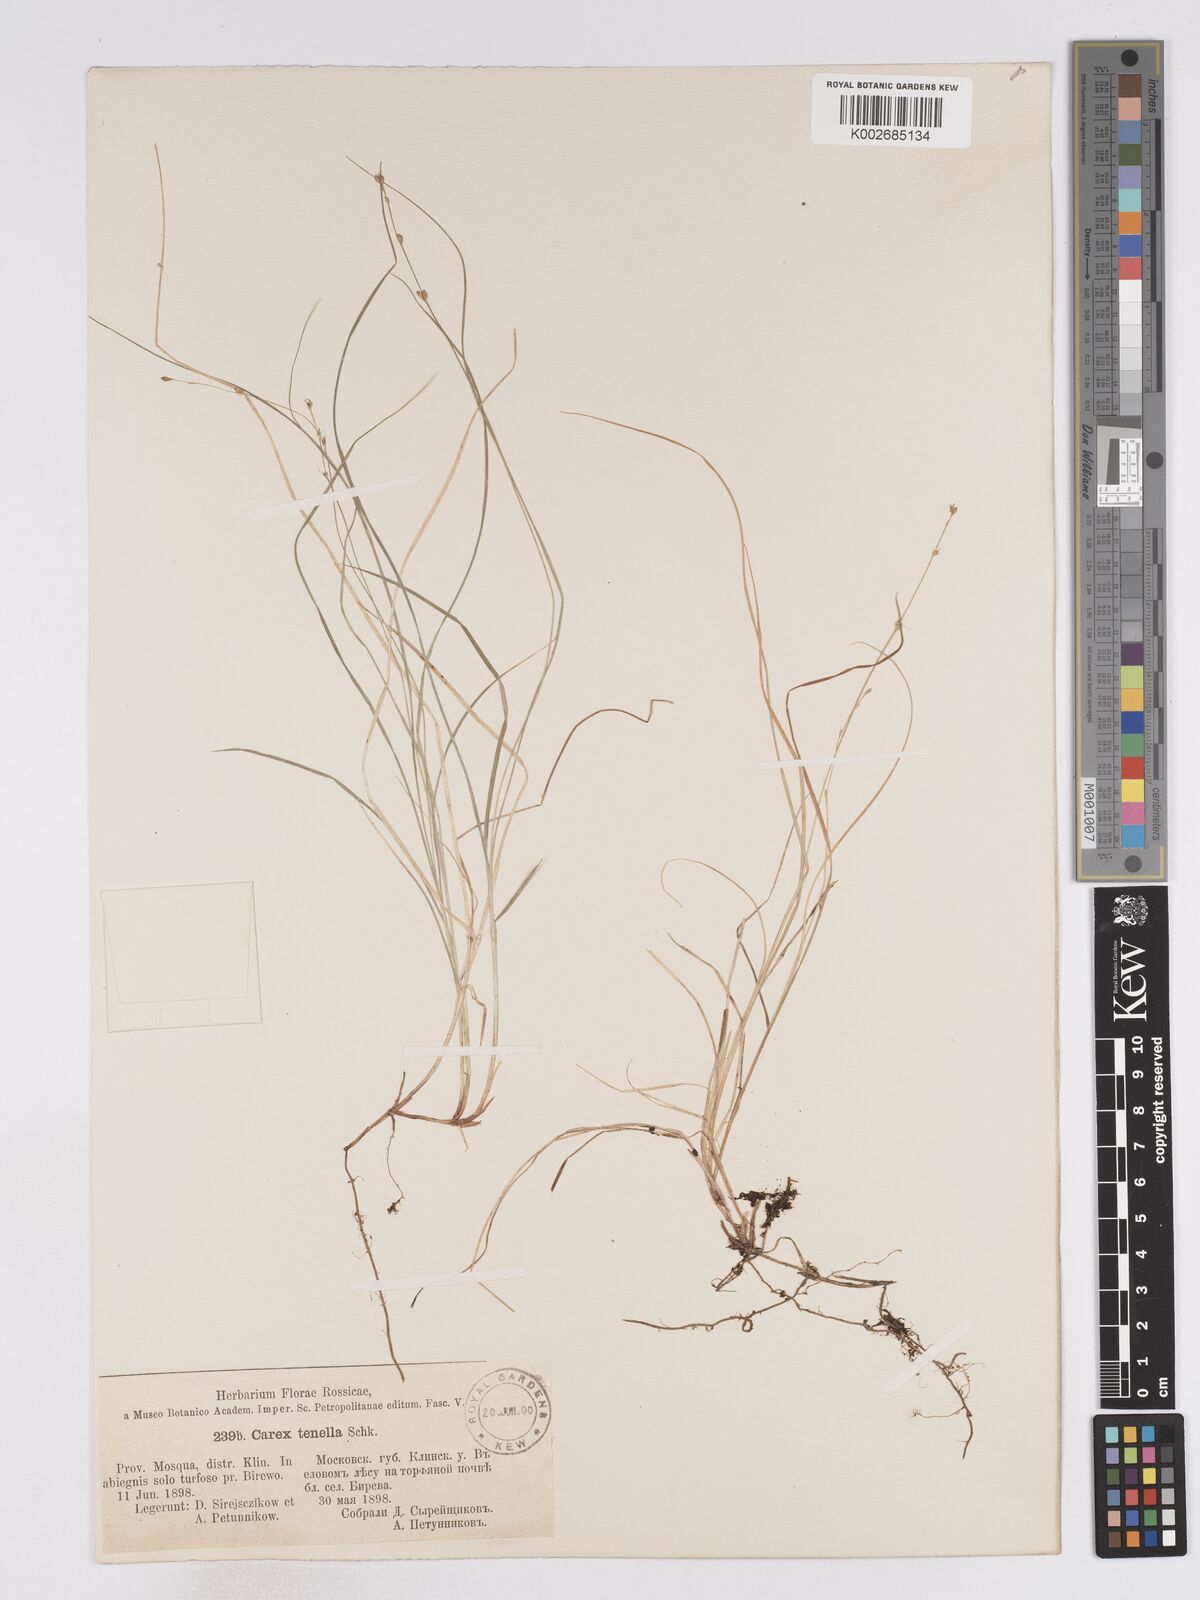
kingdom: Plantae
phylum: Tracheophyta
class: Liliopsida
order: Poales
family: Cyperaceae
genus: Carex
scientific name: Carex disperma
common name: Short-leaved sedge
